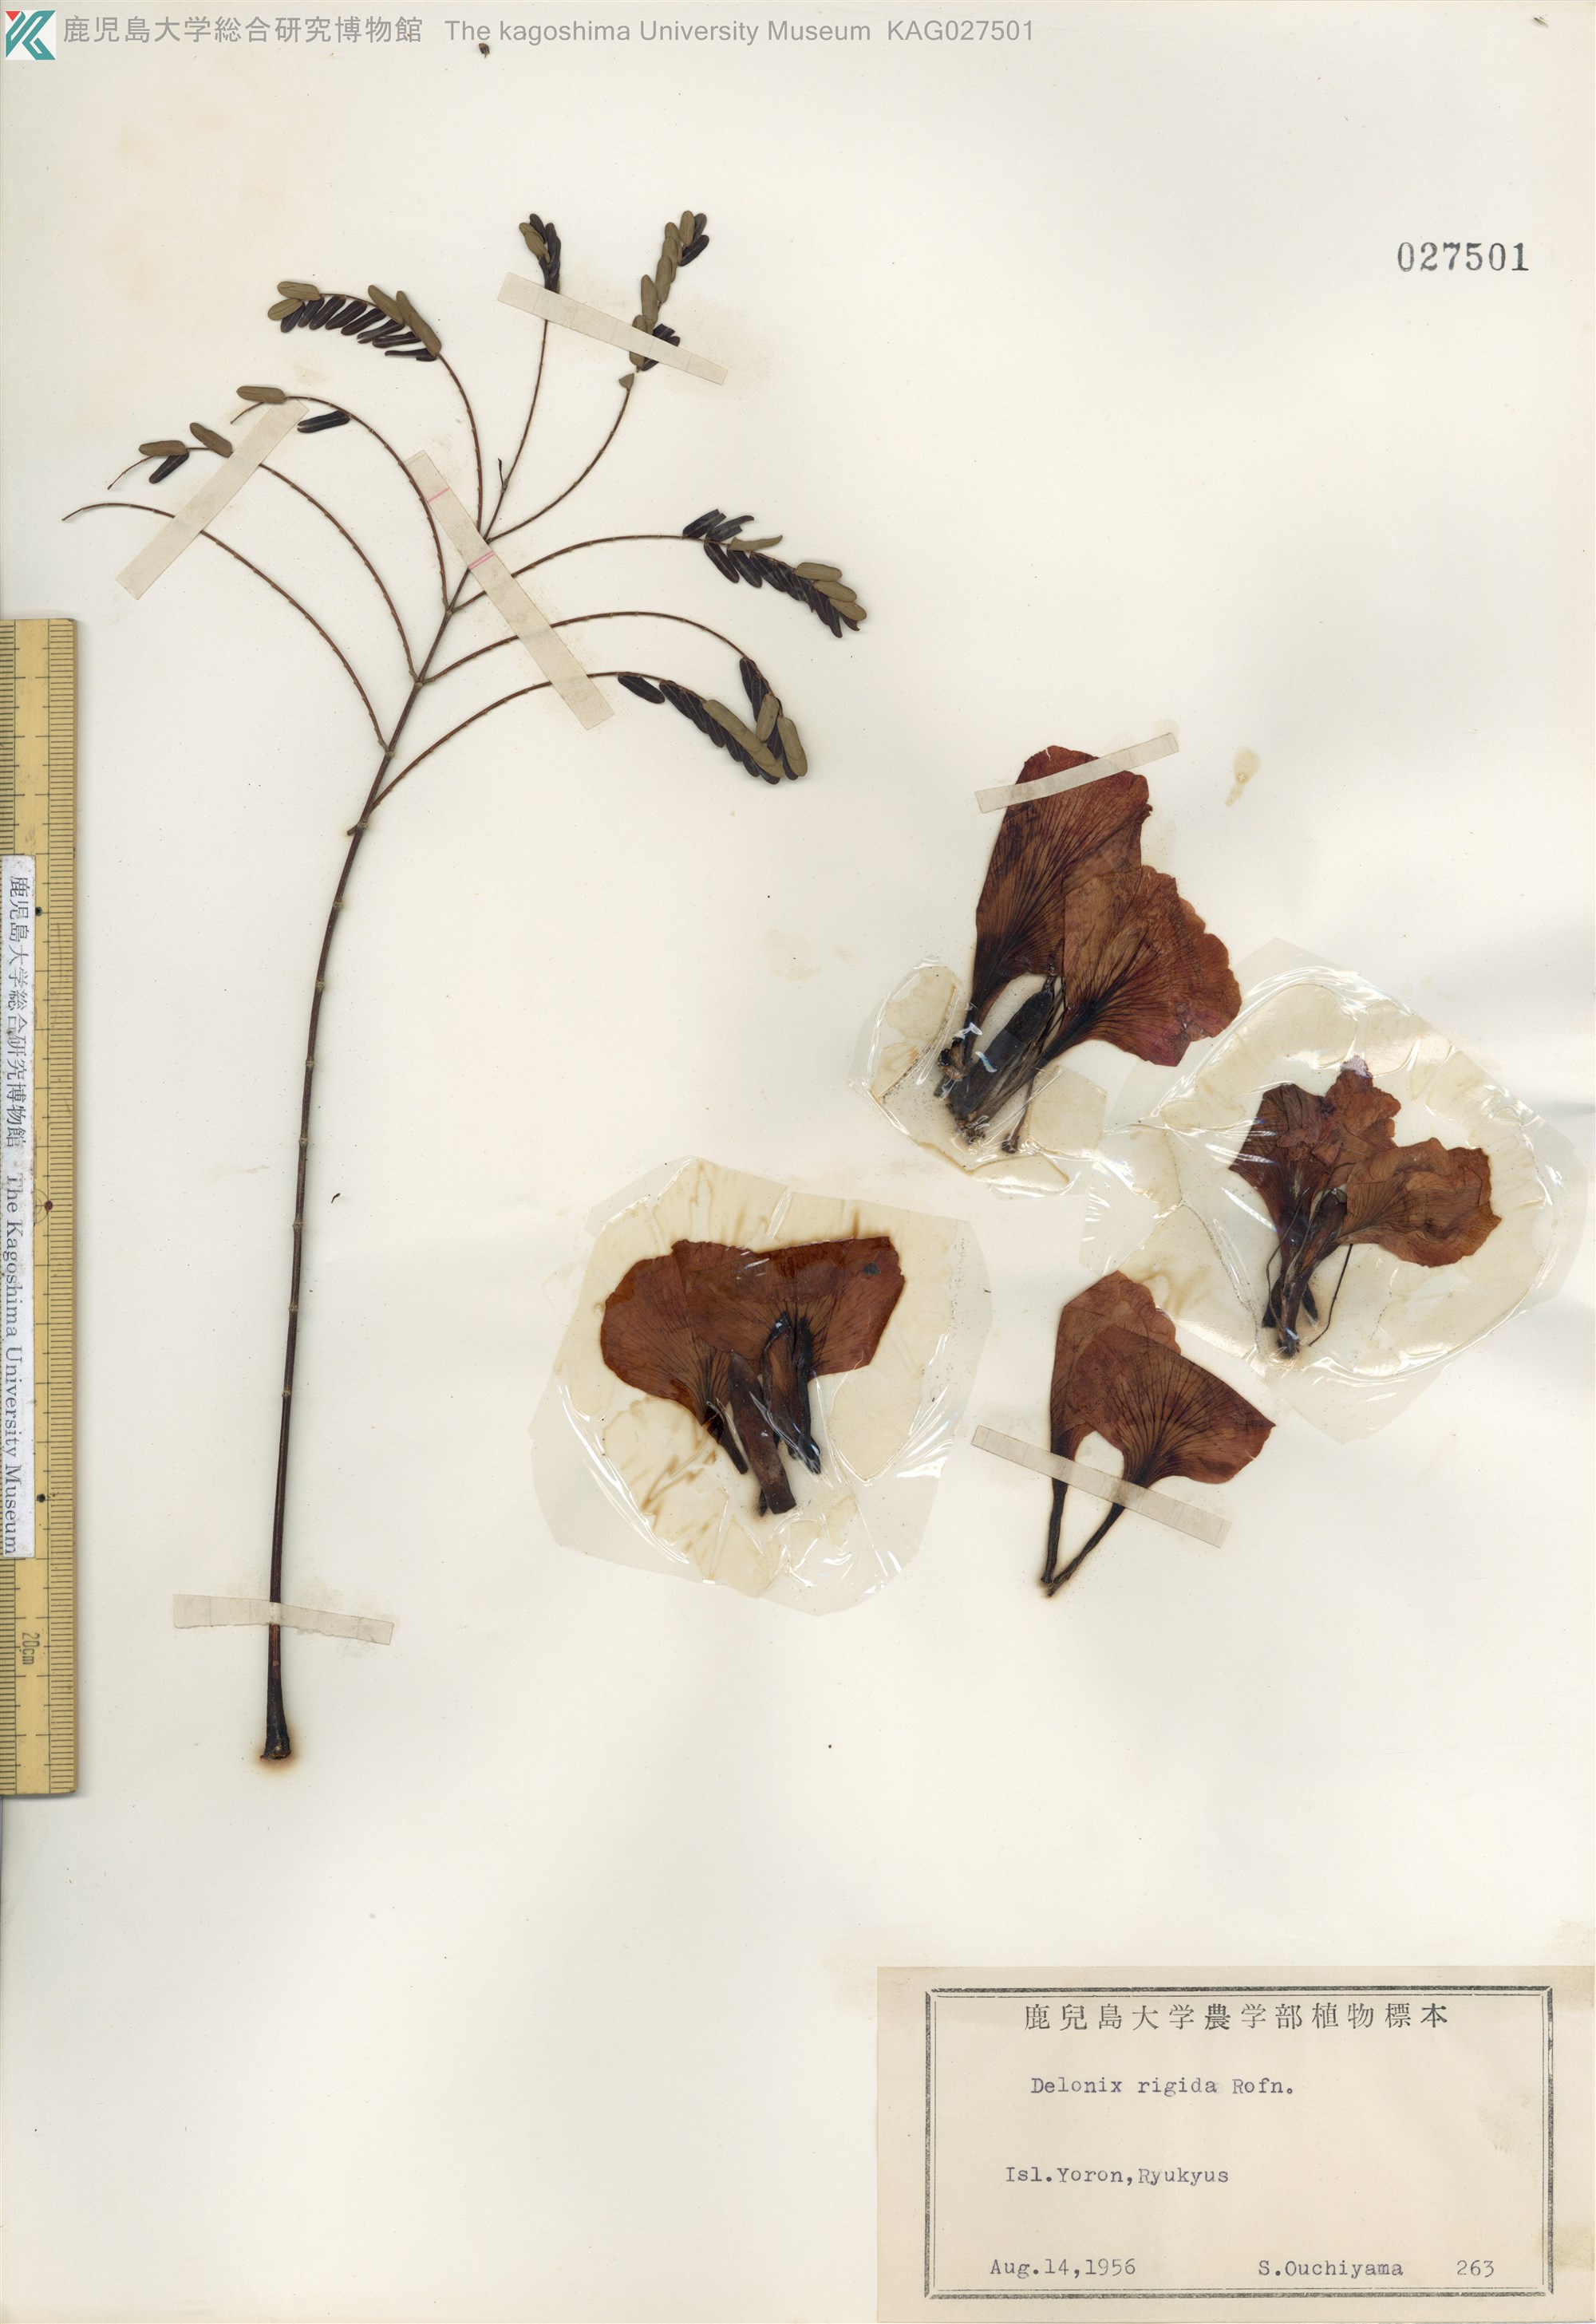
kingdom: Plantae
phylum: Tracheophyta
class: Magnoliopsida
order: Fabales
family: Fabaceae
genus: Delonix
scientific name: Delonix regia
